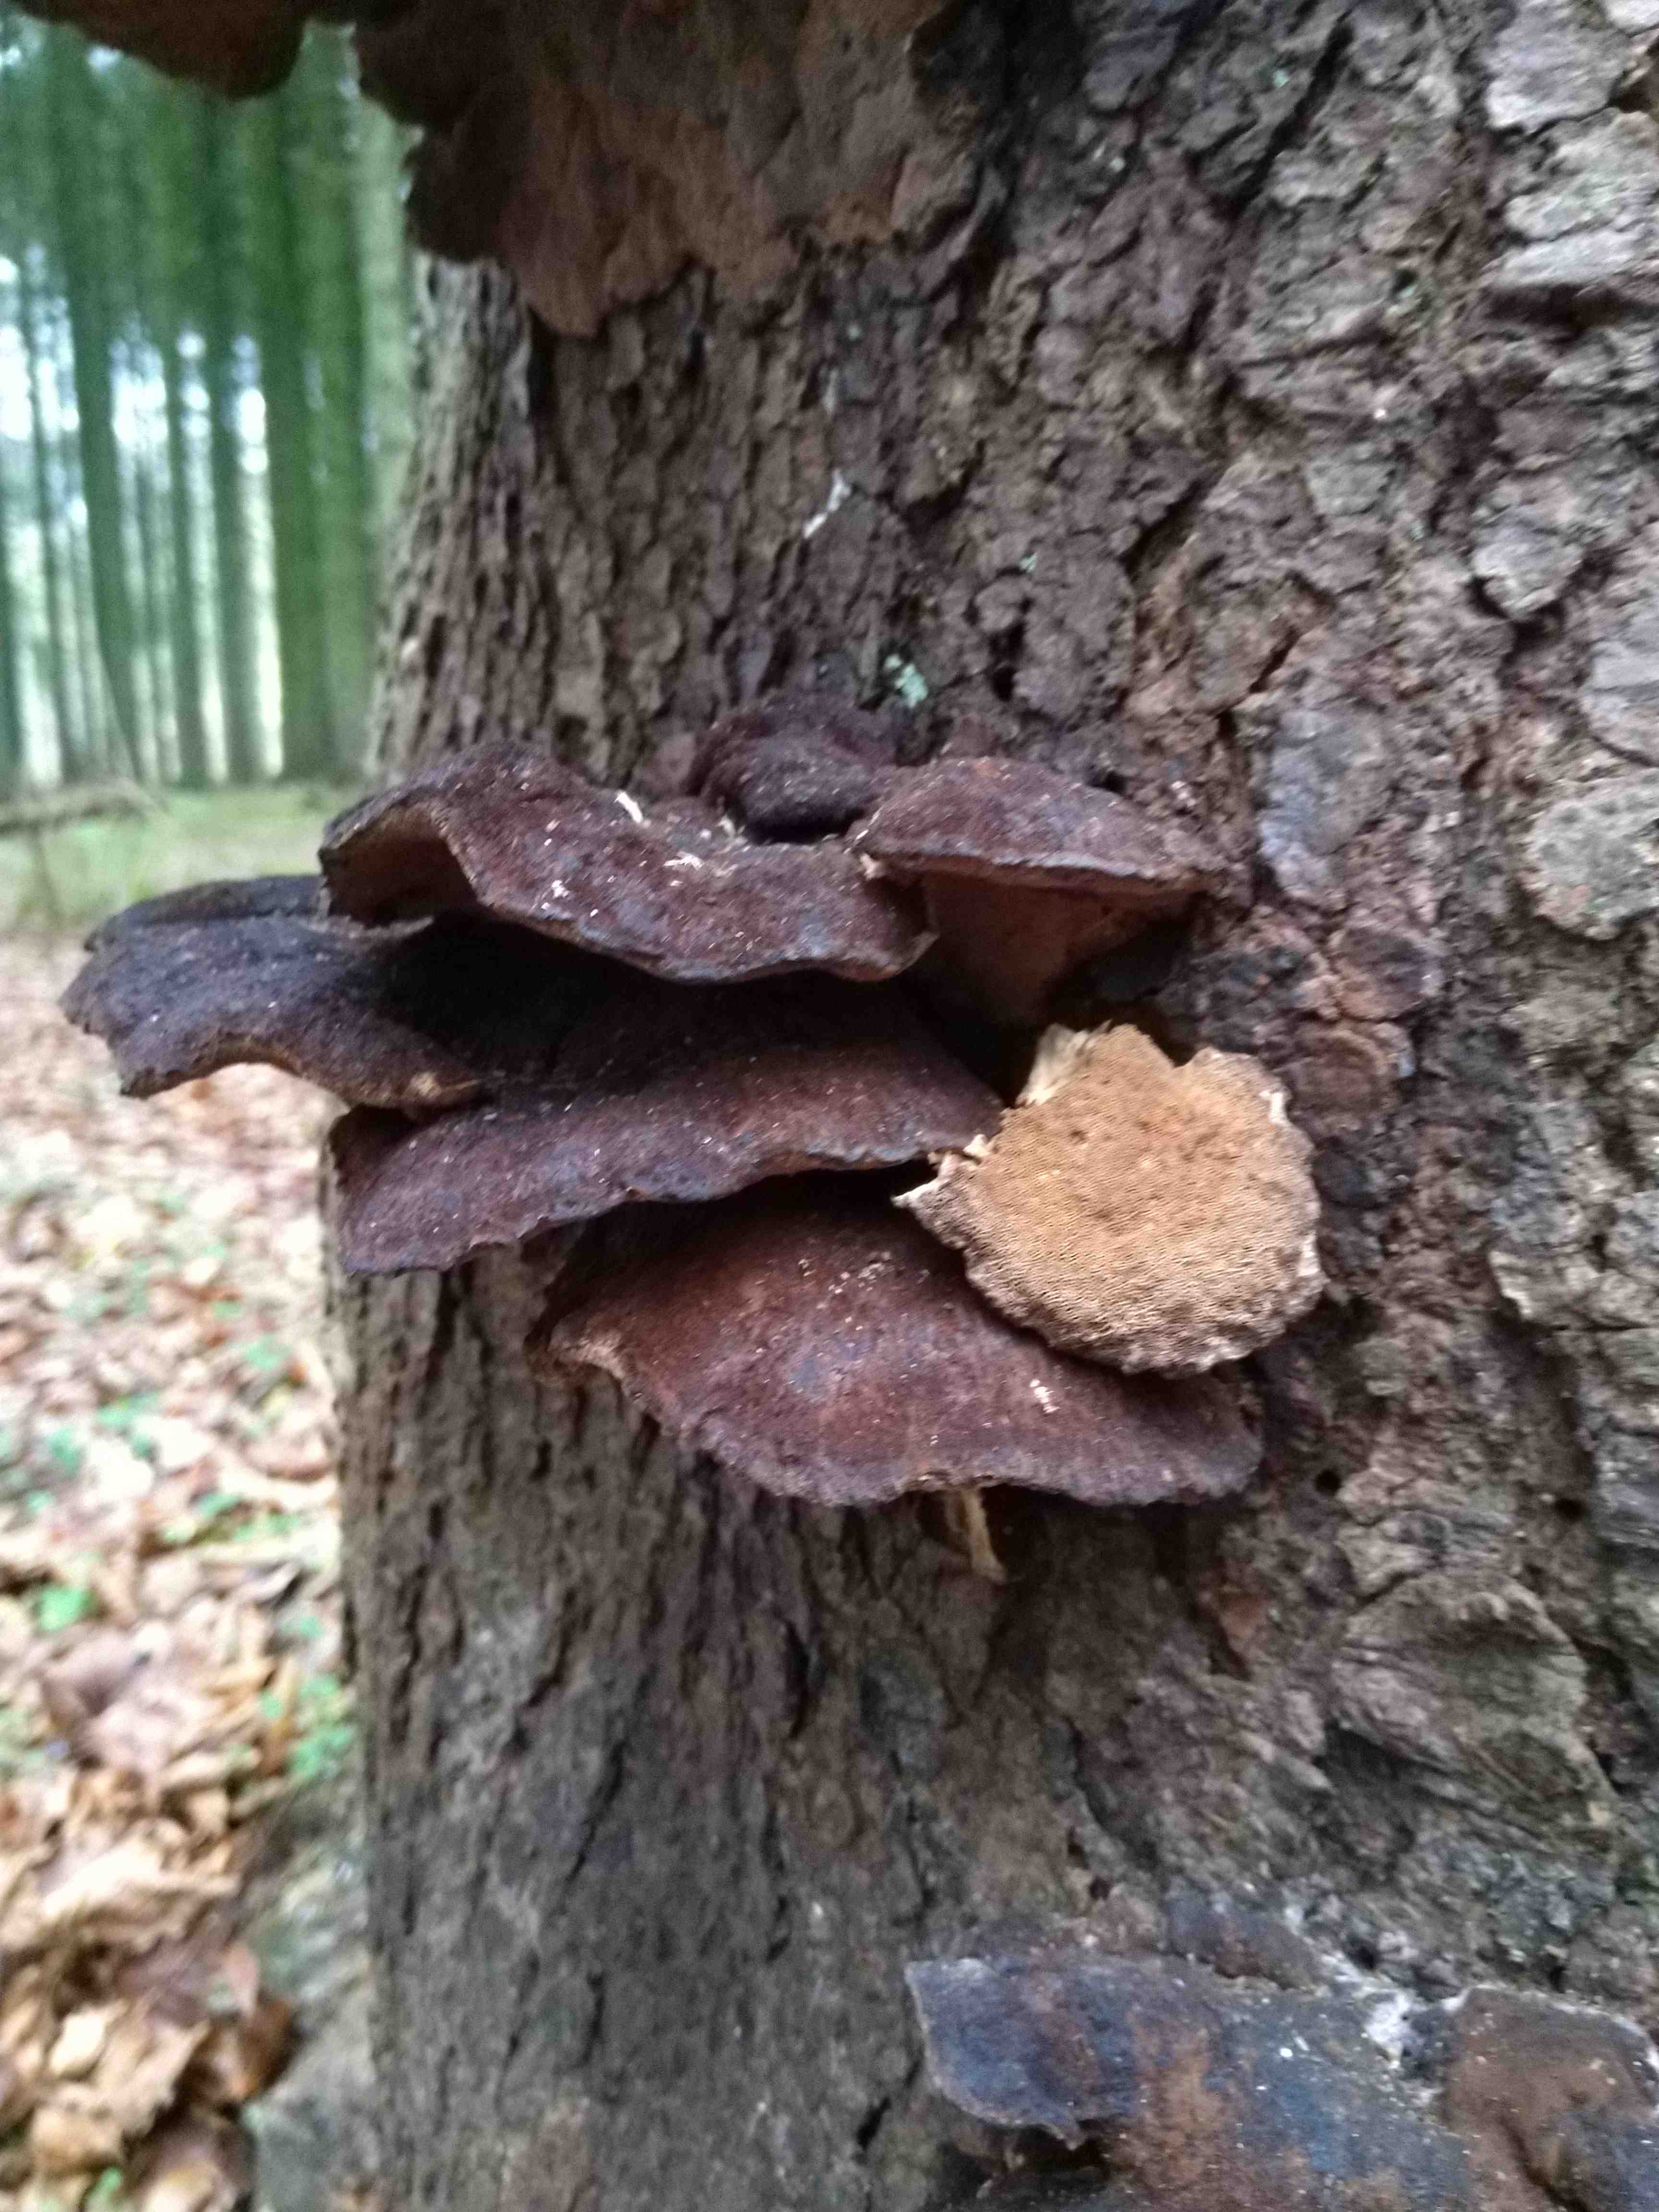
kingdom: Fungi
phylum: Basidiomycota
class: Agaricomycetes
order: Polyporales
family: Ischnodermataceae
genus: Ischnoderma
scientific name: Ischnoderma benzoinum
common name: gran-tjæreporesvamp
